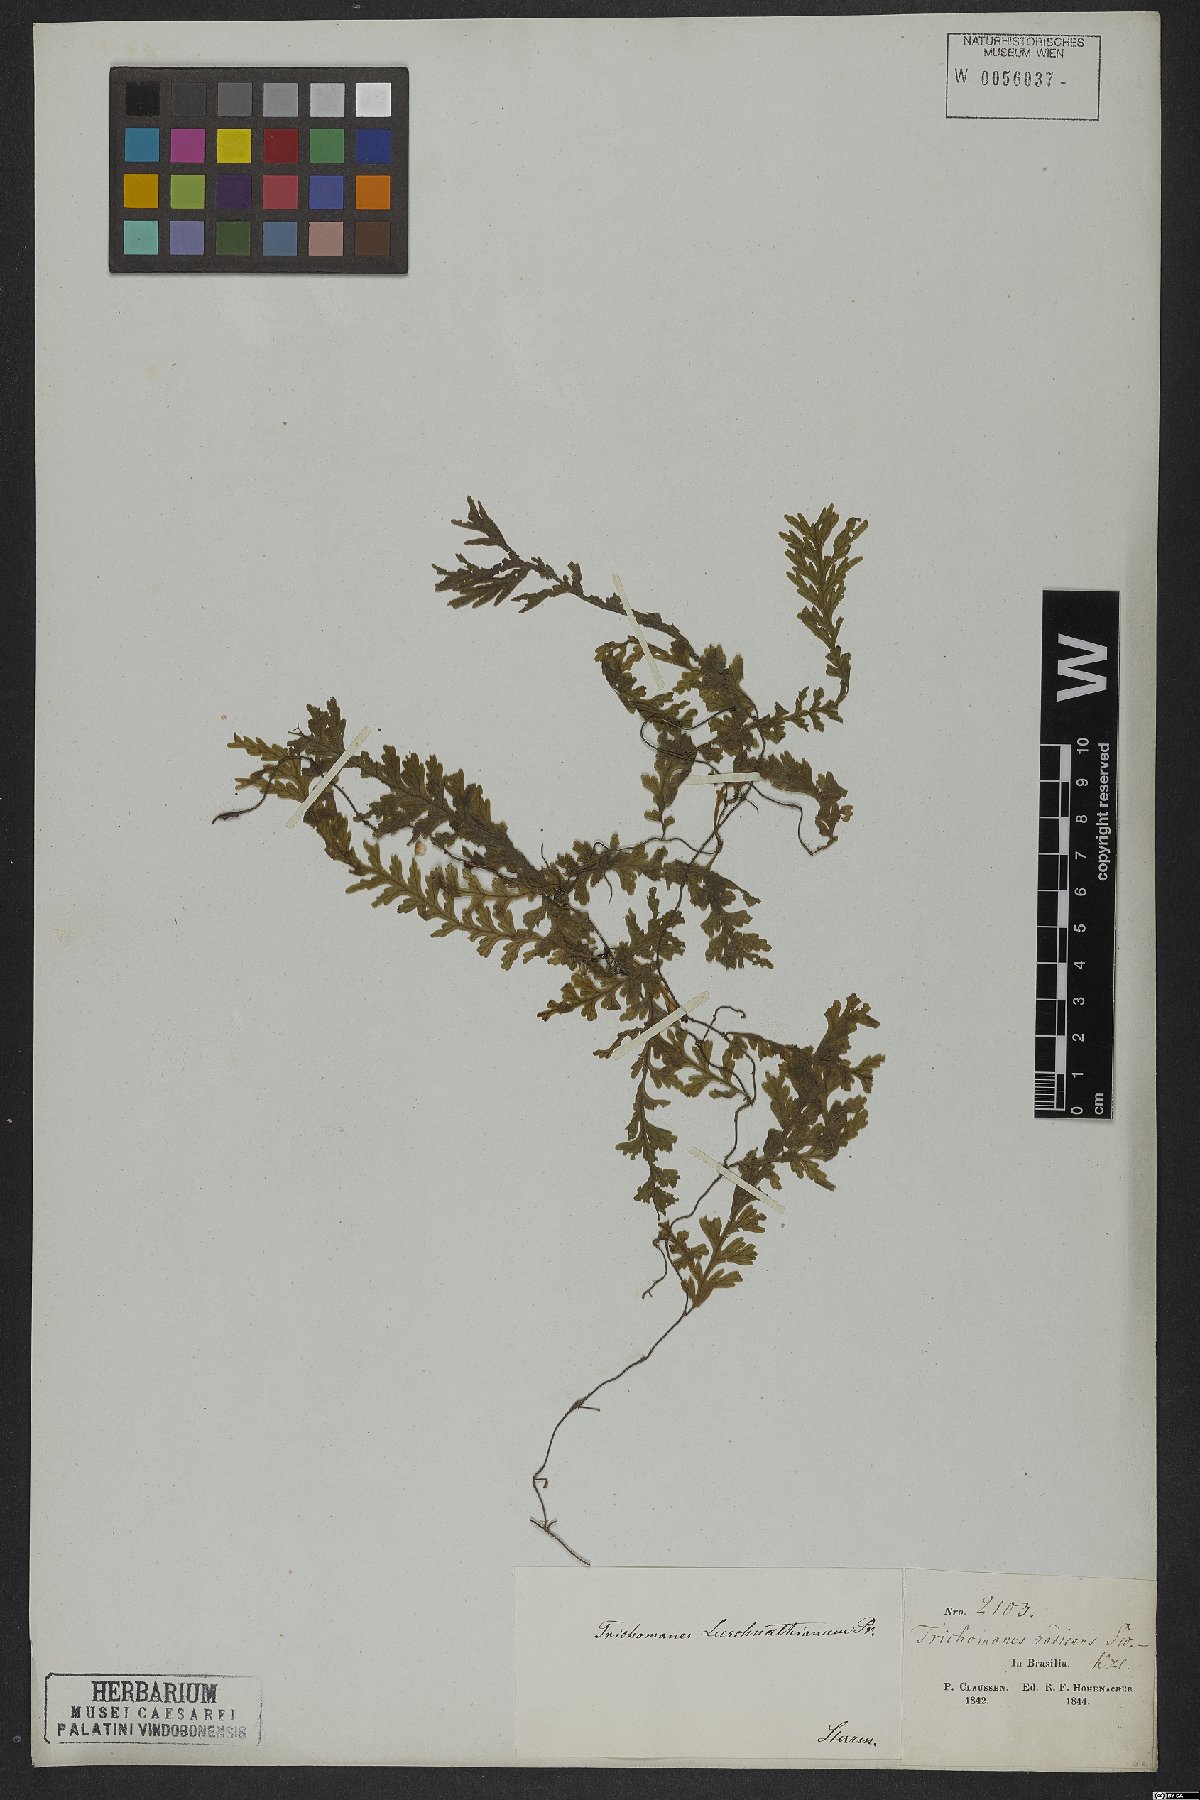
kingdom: Plantae
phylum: Tracheophyta
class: Polypodiopsida
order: Hymenophyllales
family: Hymenophyllaceae
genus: Vandenboschia
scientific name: Vandenboschia rupestris
